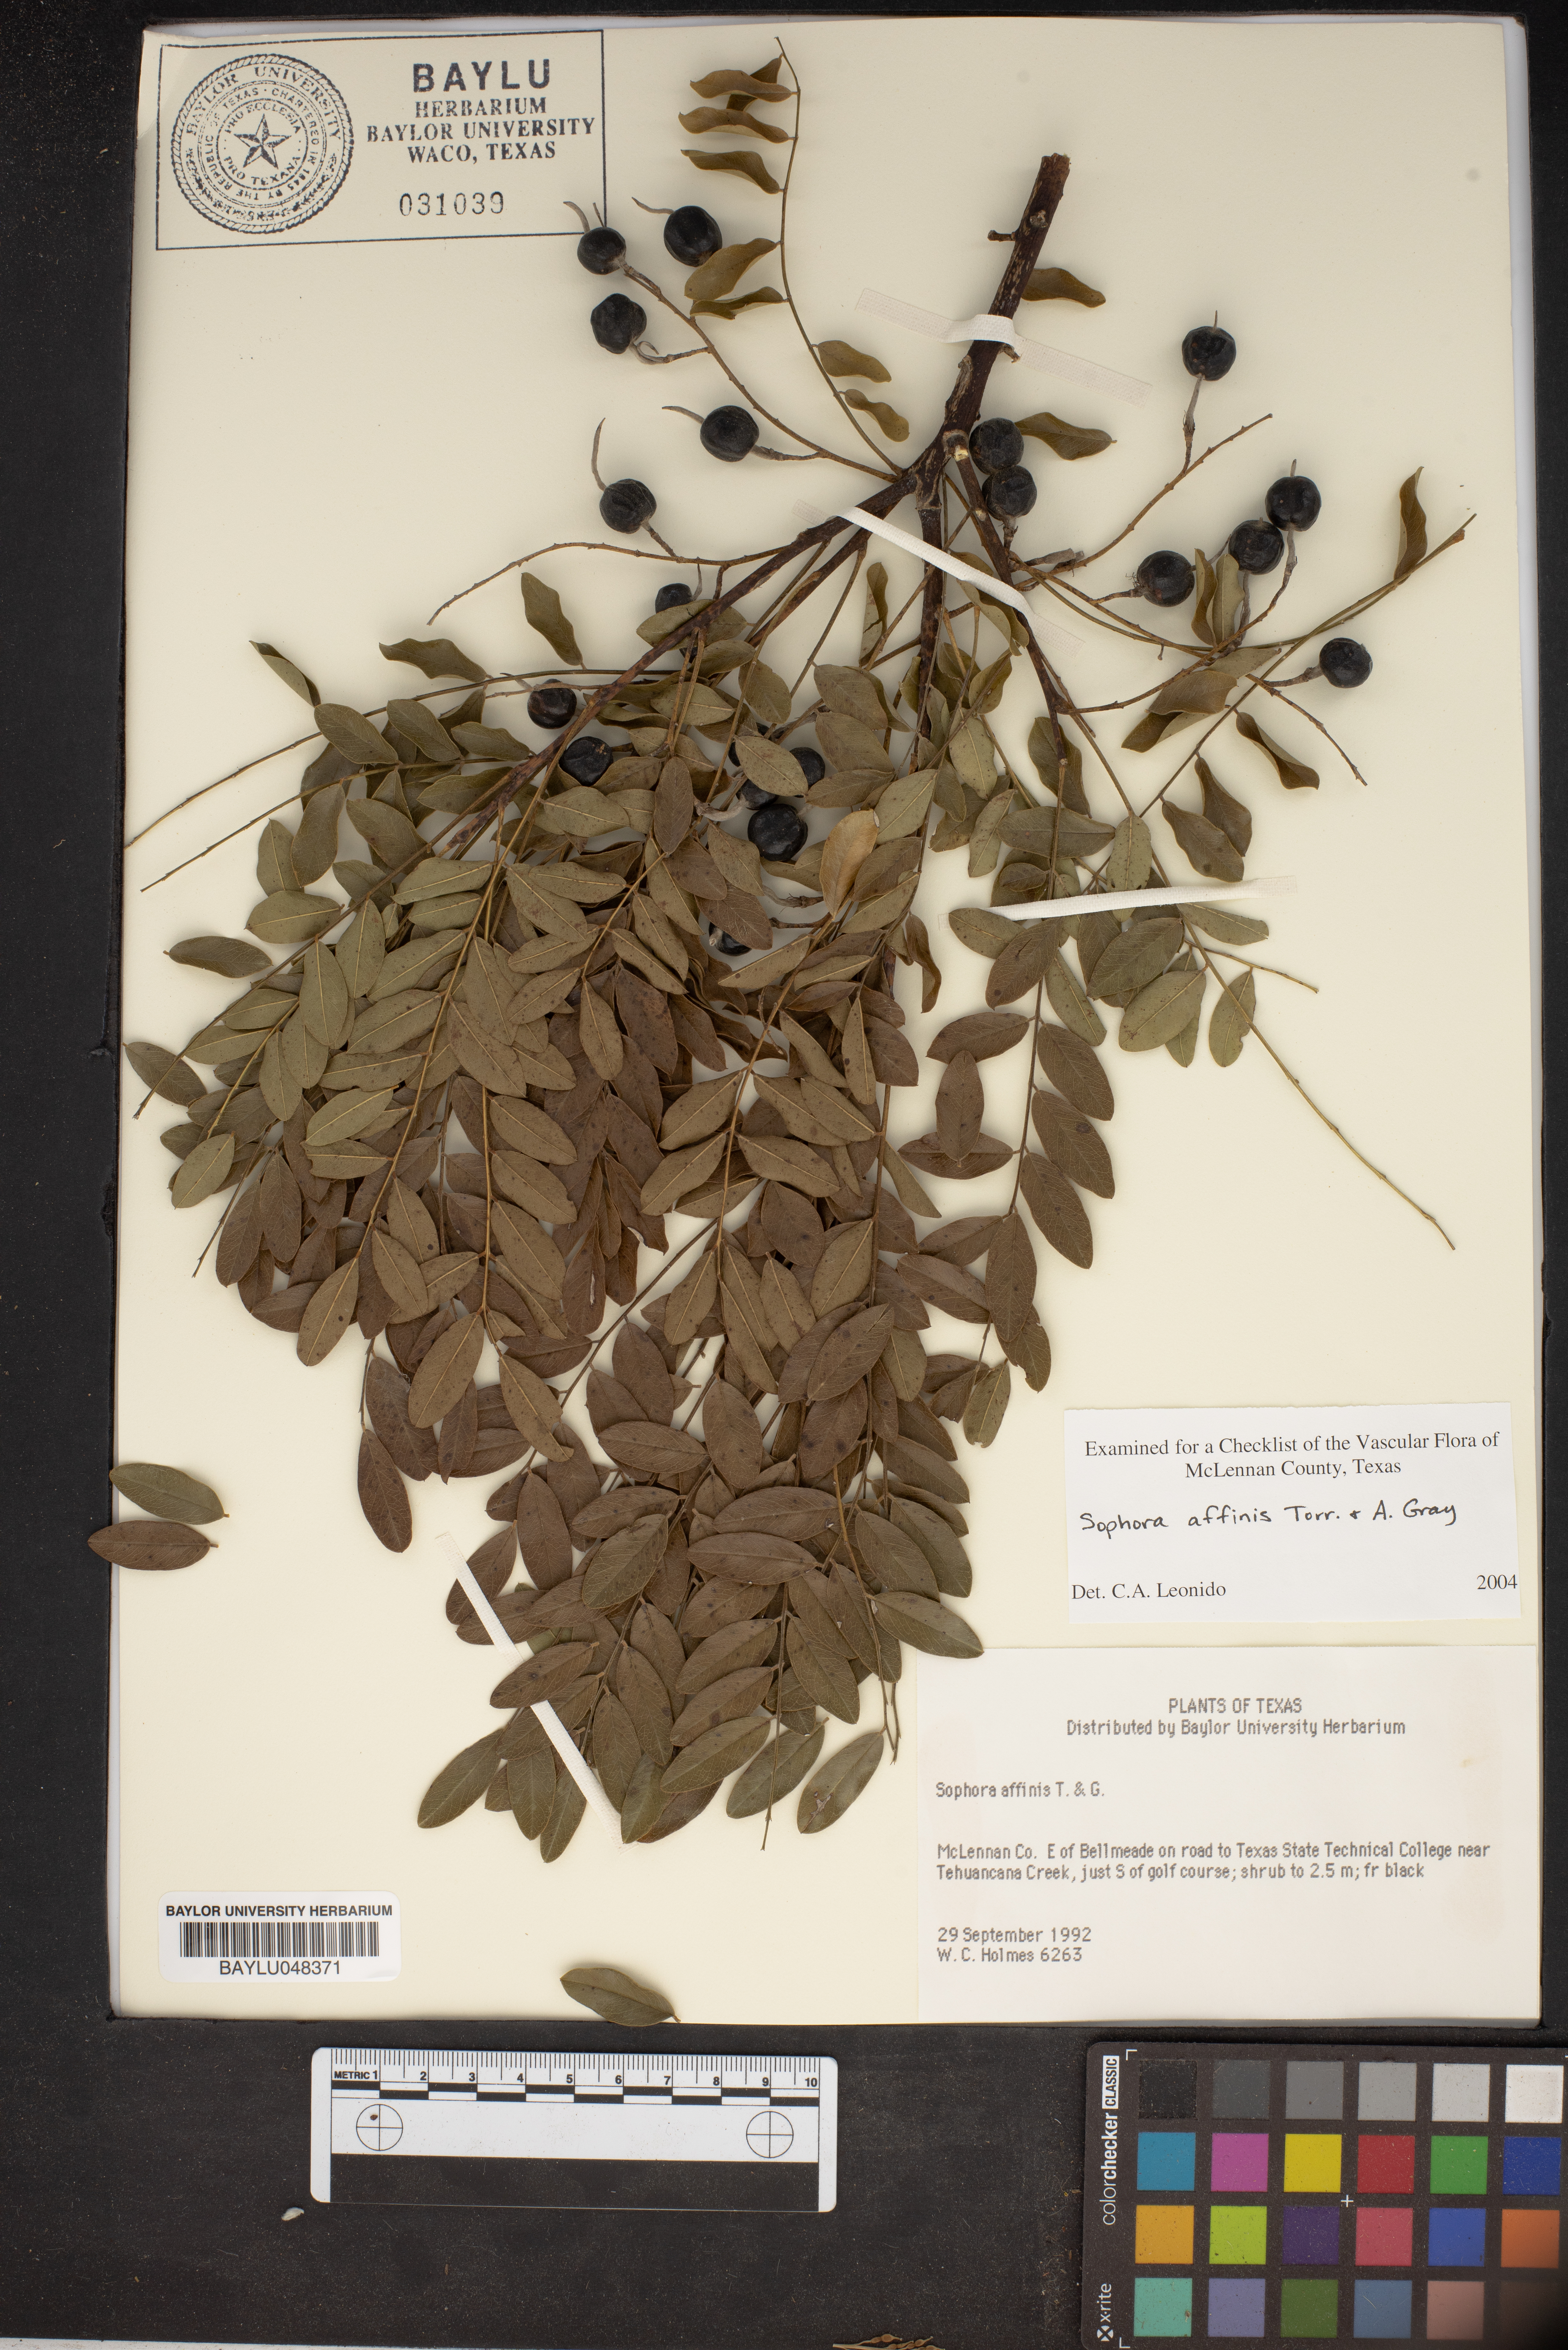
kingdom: Plantae
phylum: Tracheophyta
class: Magnoliopsida
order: Fabales
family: Fabaceae
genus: Styphnolobium
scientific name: Styphnolobium affine
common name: Texas sophora
